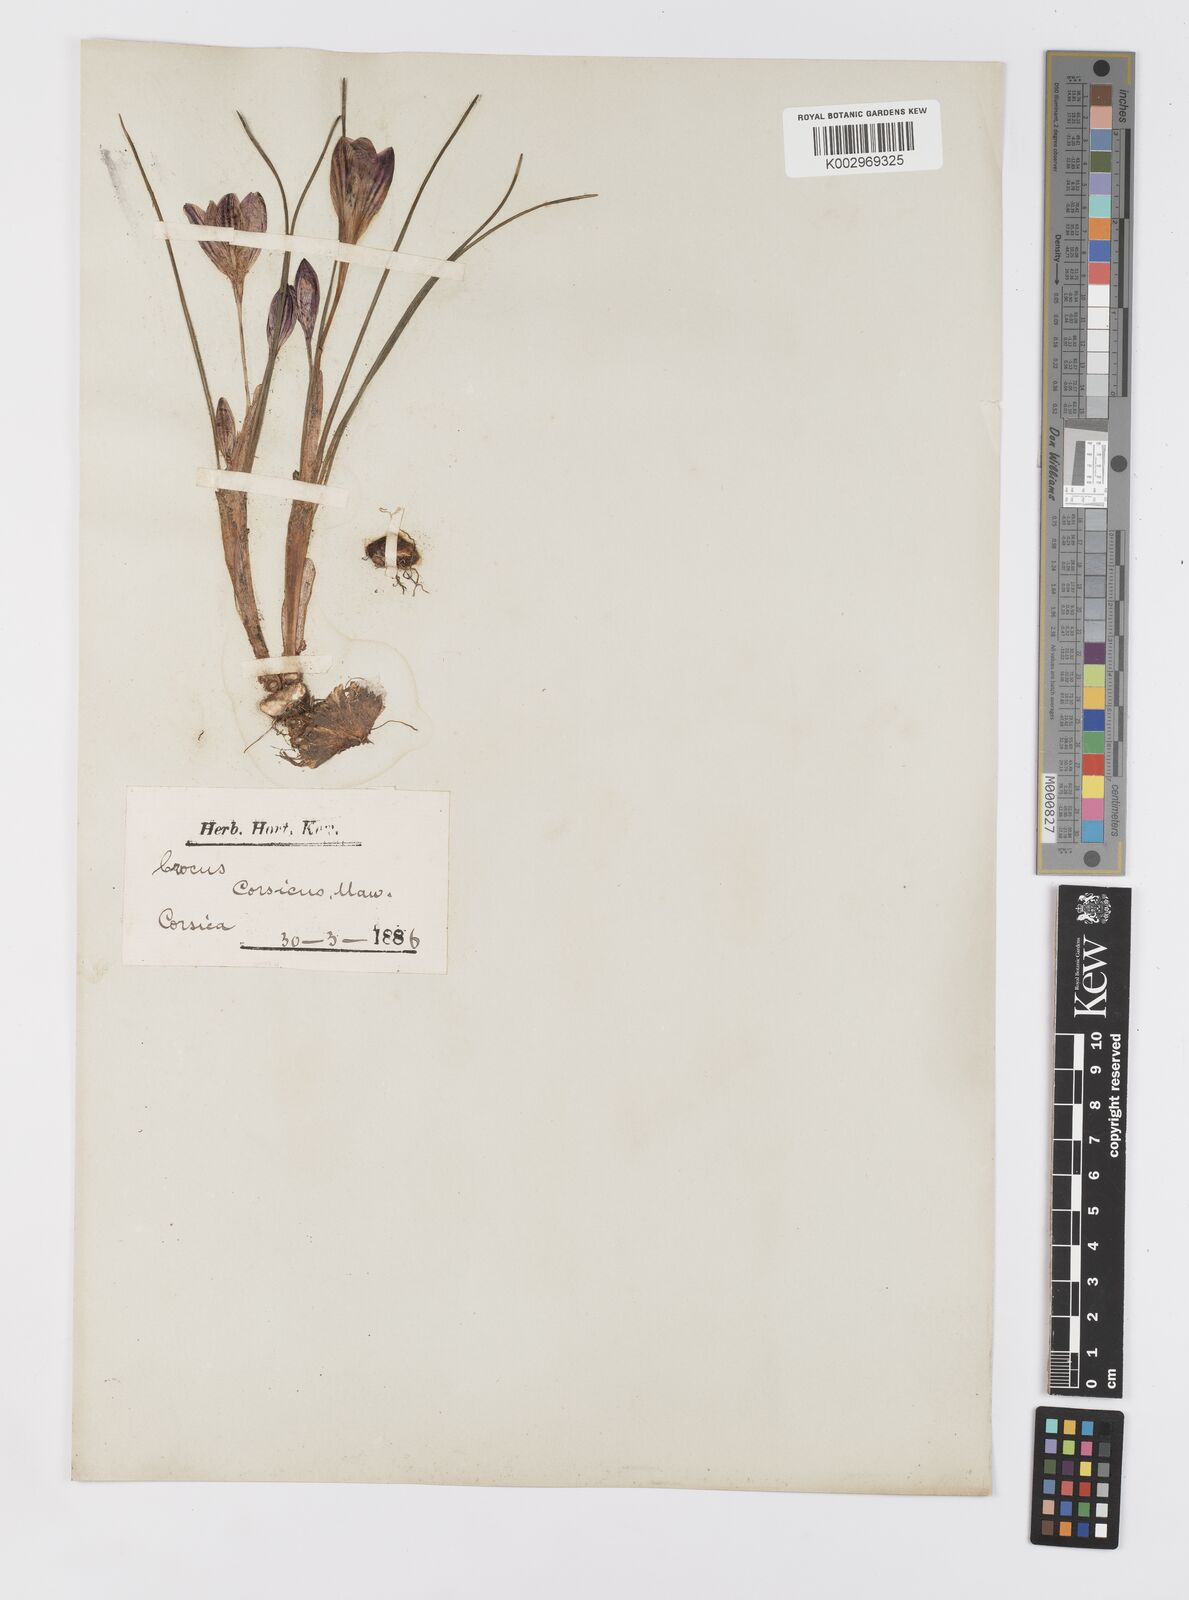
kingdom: Plantae
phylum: Tracheophyta
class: Liliopsida
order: Asparagales
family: Iridaceae
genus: Crocus
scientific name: Crocus corsicus
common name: Corsican crocus
